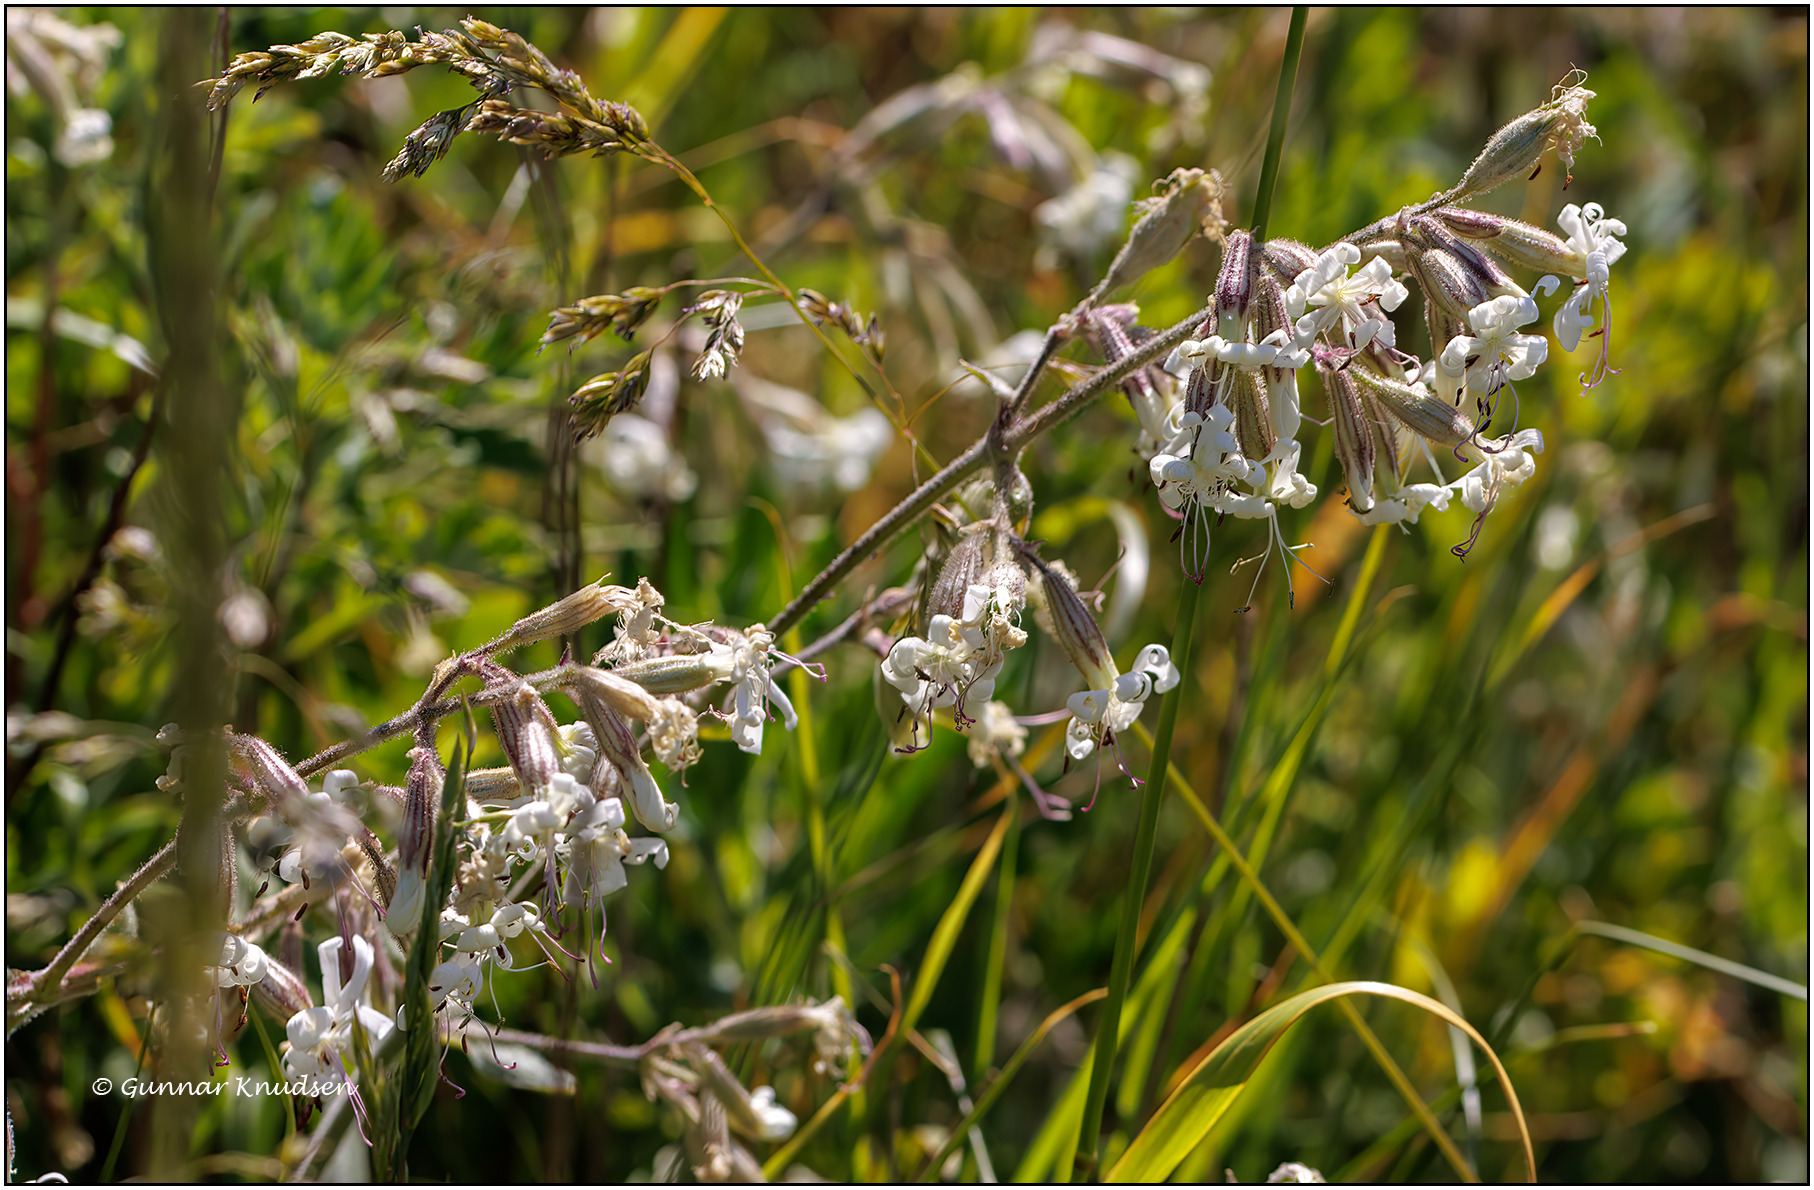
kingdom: Plantae
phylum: Tracheophyta
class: Magnoliopsida
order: Caryophyllales
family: Caryophyllaceae
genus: Silene
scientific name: Silene nutans
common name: Nikkende limurt
